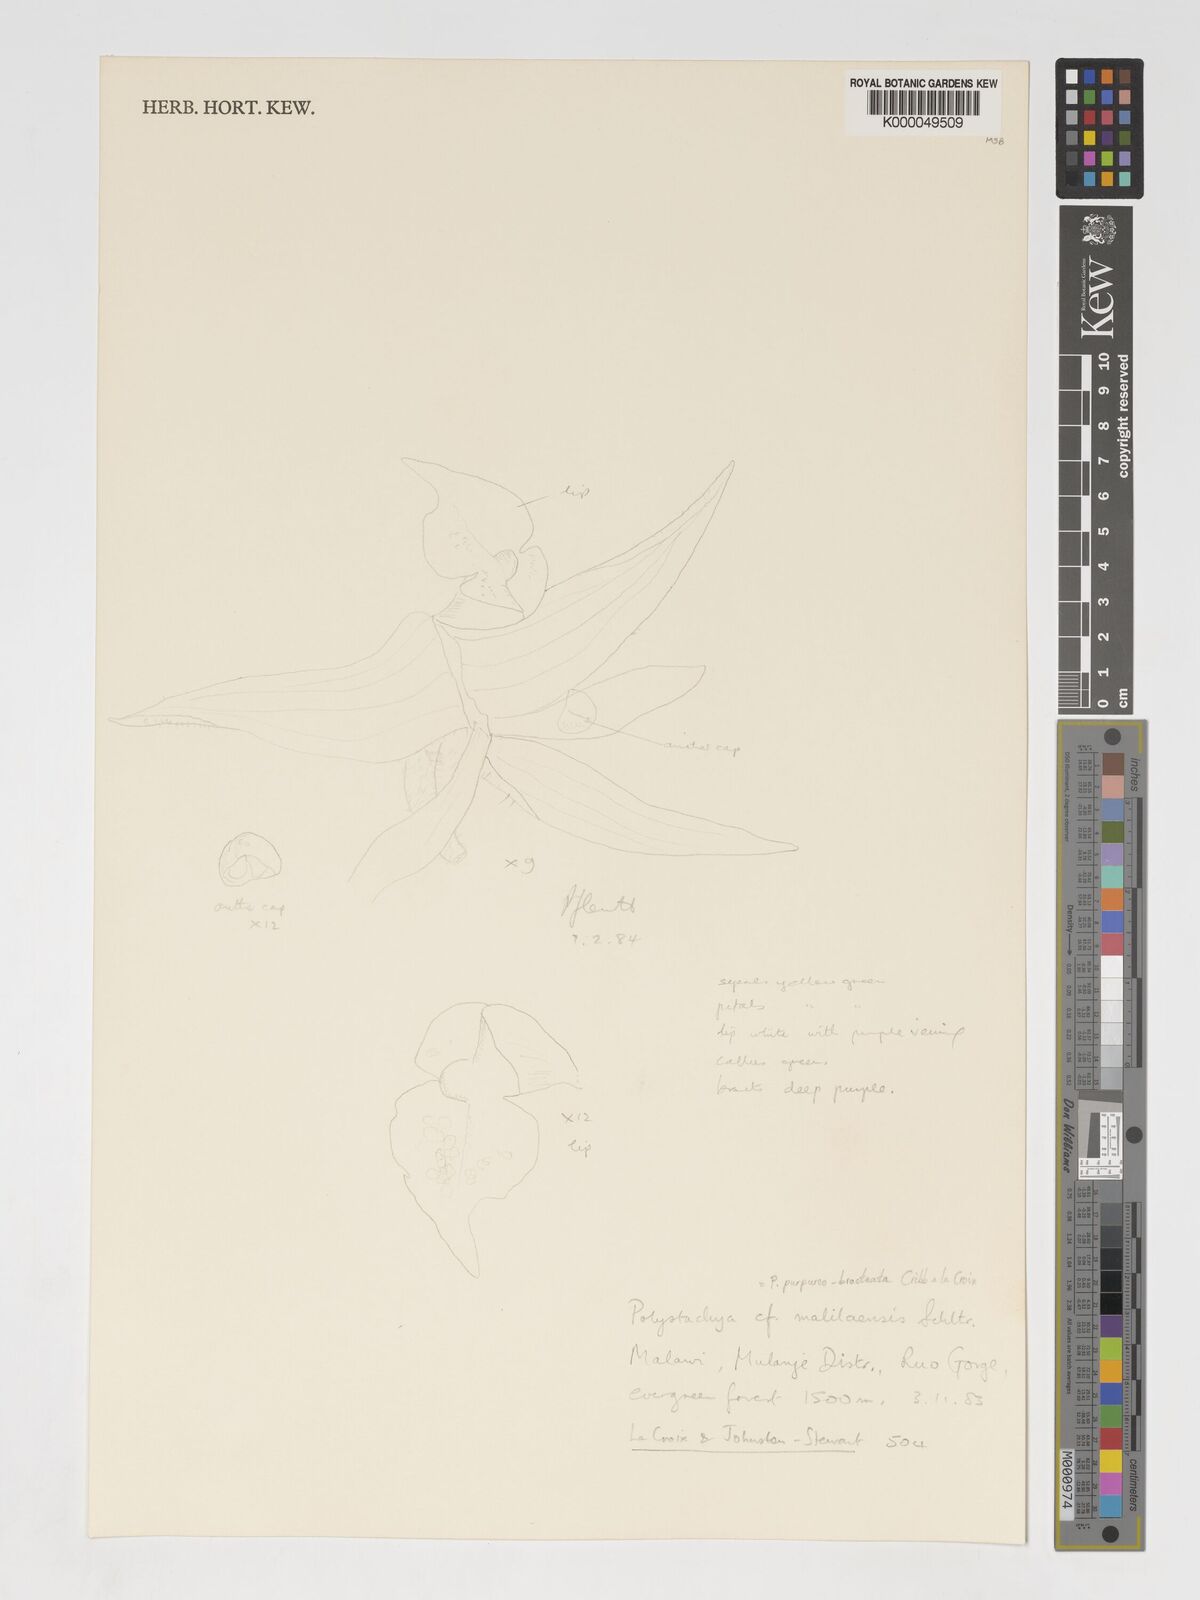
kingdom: Plantae
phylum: Tracheophyta
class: Liliopsida
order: Asparagales
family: Orchidaceae
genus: Polystachya
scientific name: Polystachya purpureobracteata
